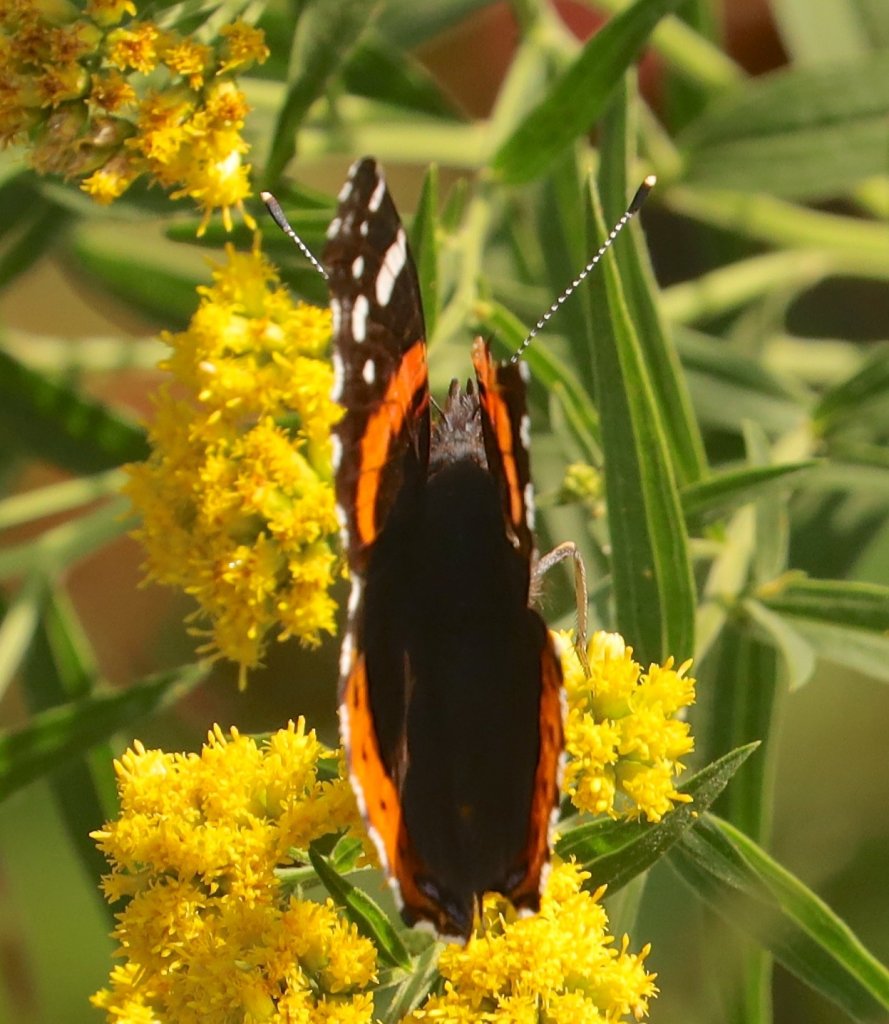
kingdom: Animalia
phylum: Arthropoda
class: Insecta
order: Lepidoptera
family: Nymphalidae
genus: Vanessa
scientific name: Vanessa atalanta
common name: Red Admiral
